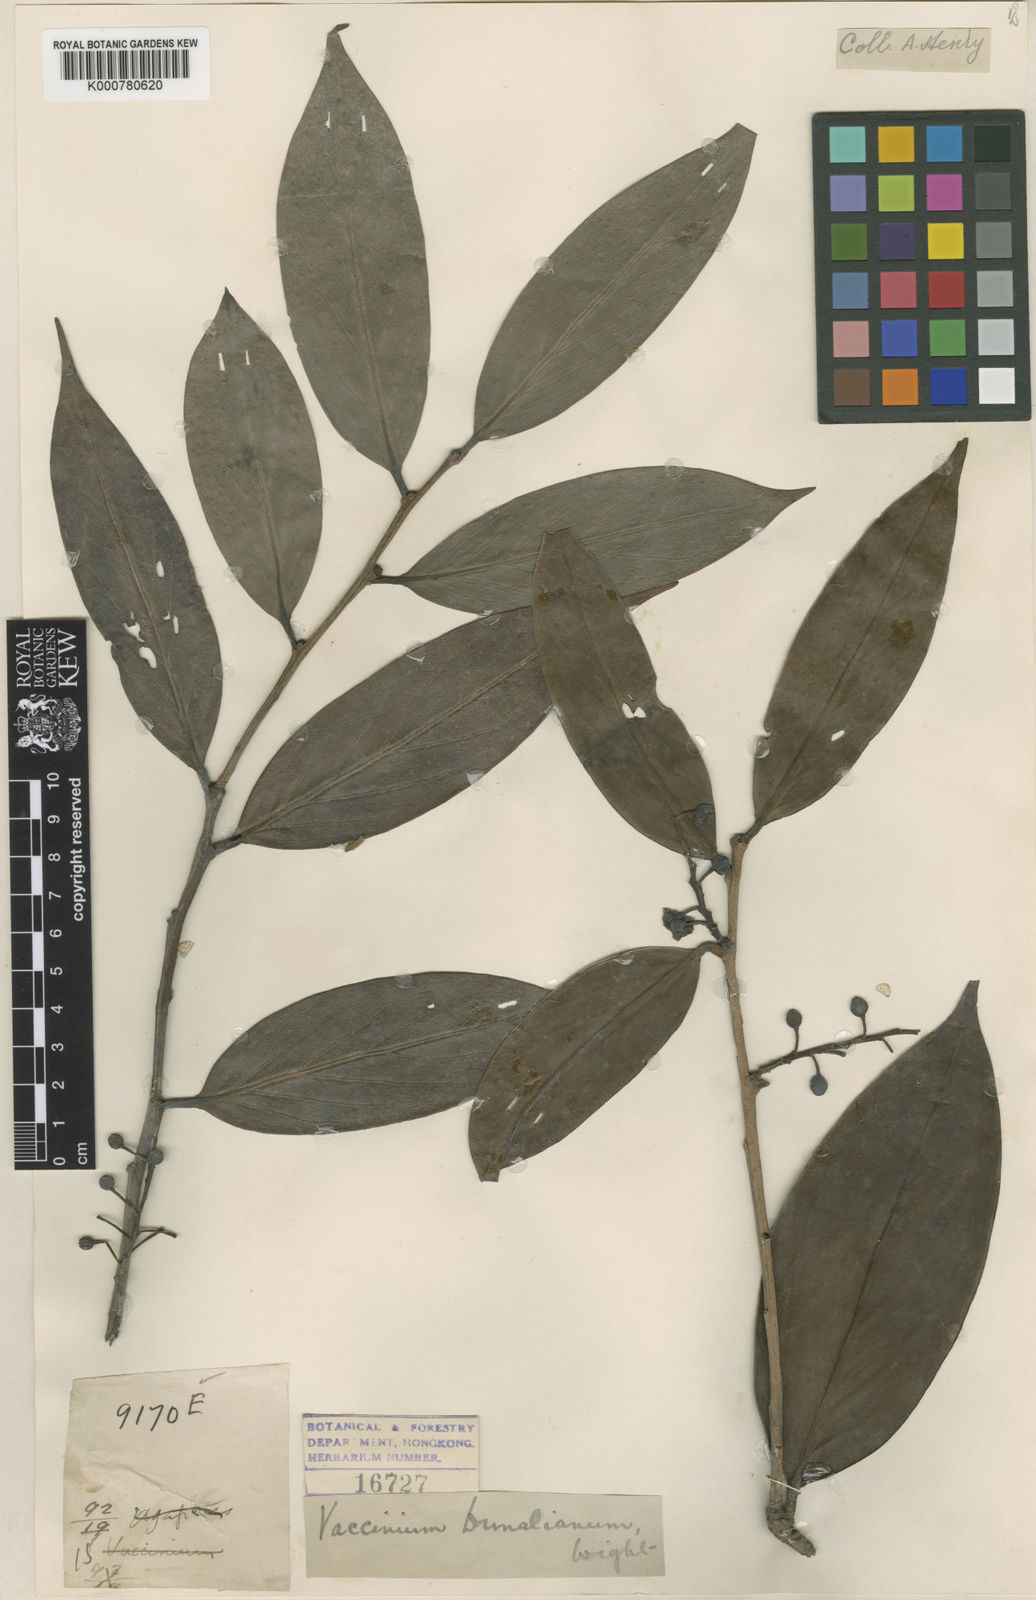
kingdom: Plantae
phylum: Tracheophyta
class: Magnoliopsida
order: Ericales
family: Ericaceae
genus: Vaccinium
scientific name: Vaccinium dunalianum
